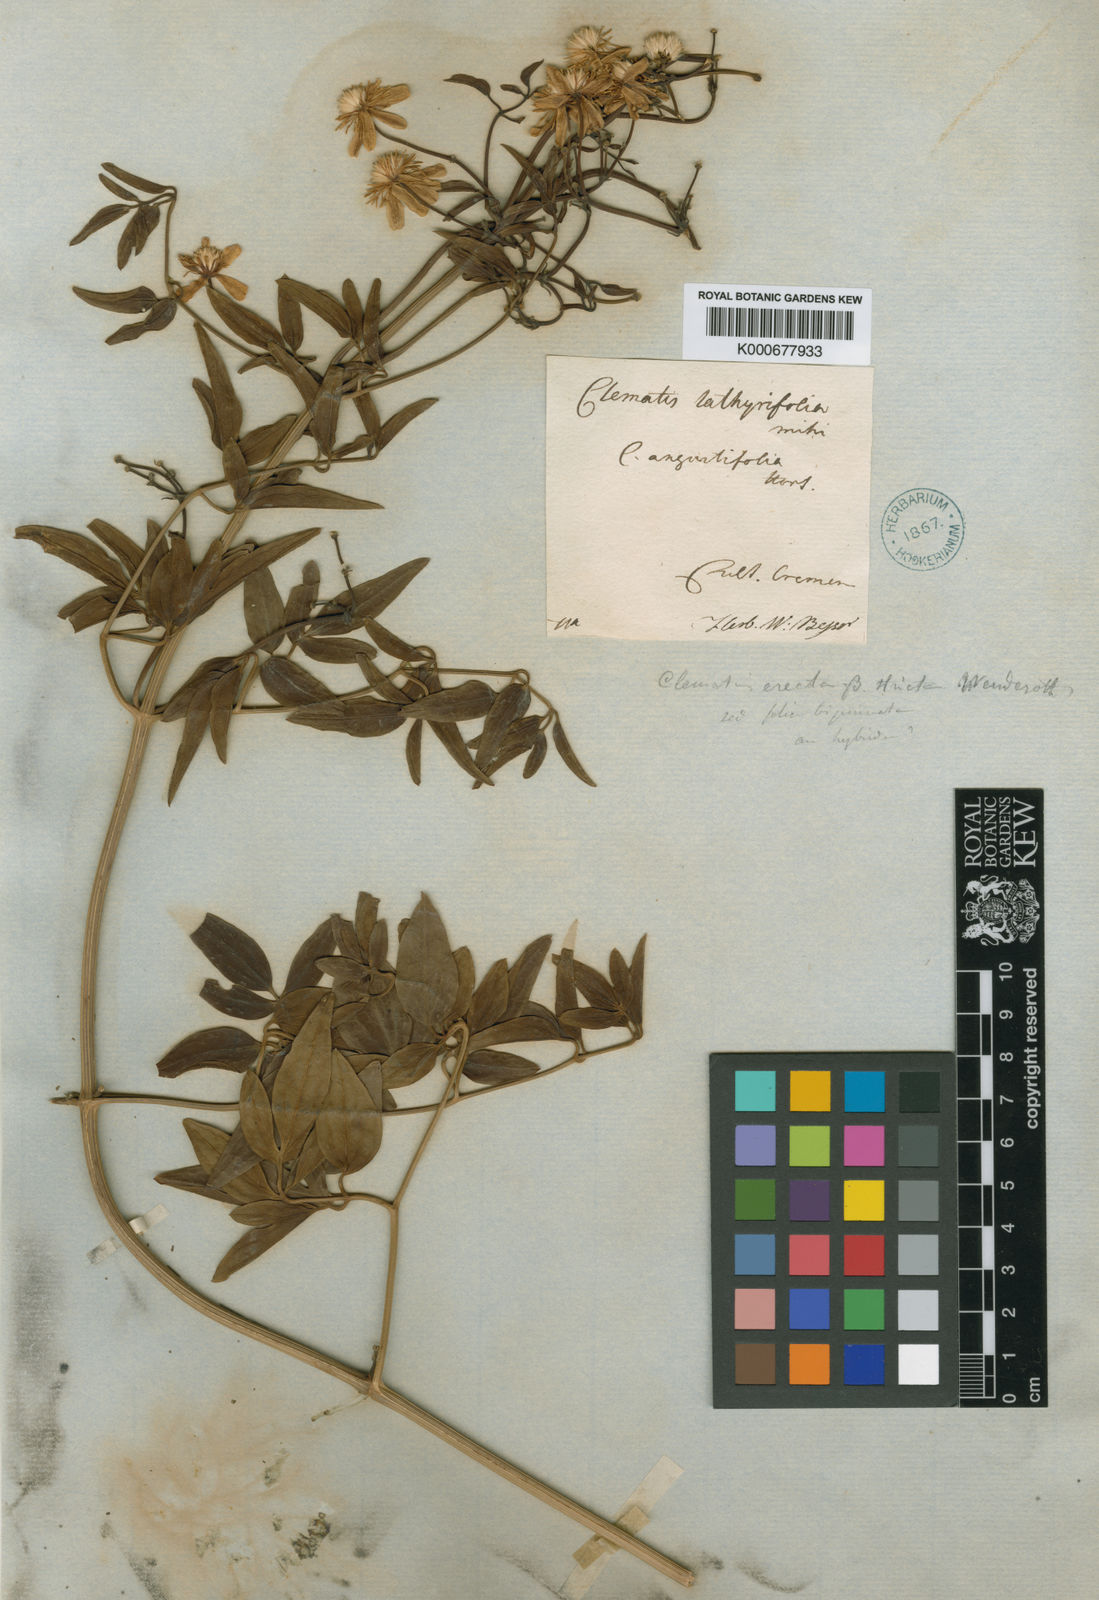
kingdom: Plantae
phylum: Tracheophyta
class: Magnoliopsida
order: Ranunculales
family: Ranunculaceae
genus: Clematis
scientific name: Clematis recta
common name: Ground clematis
